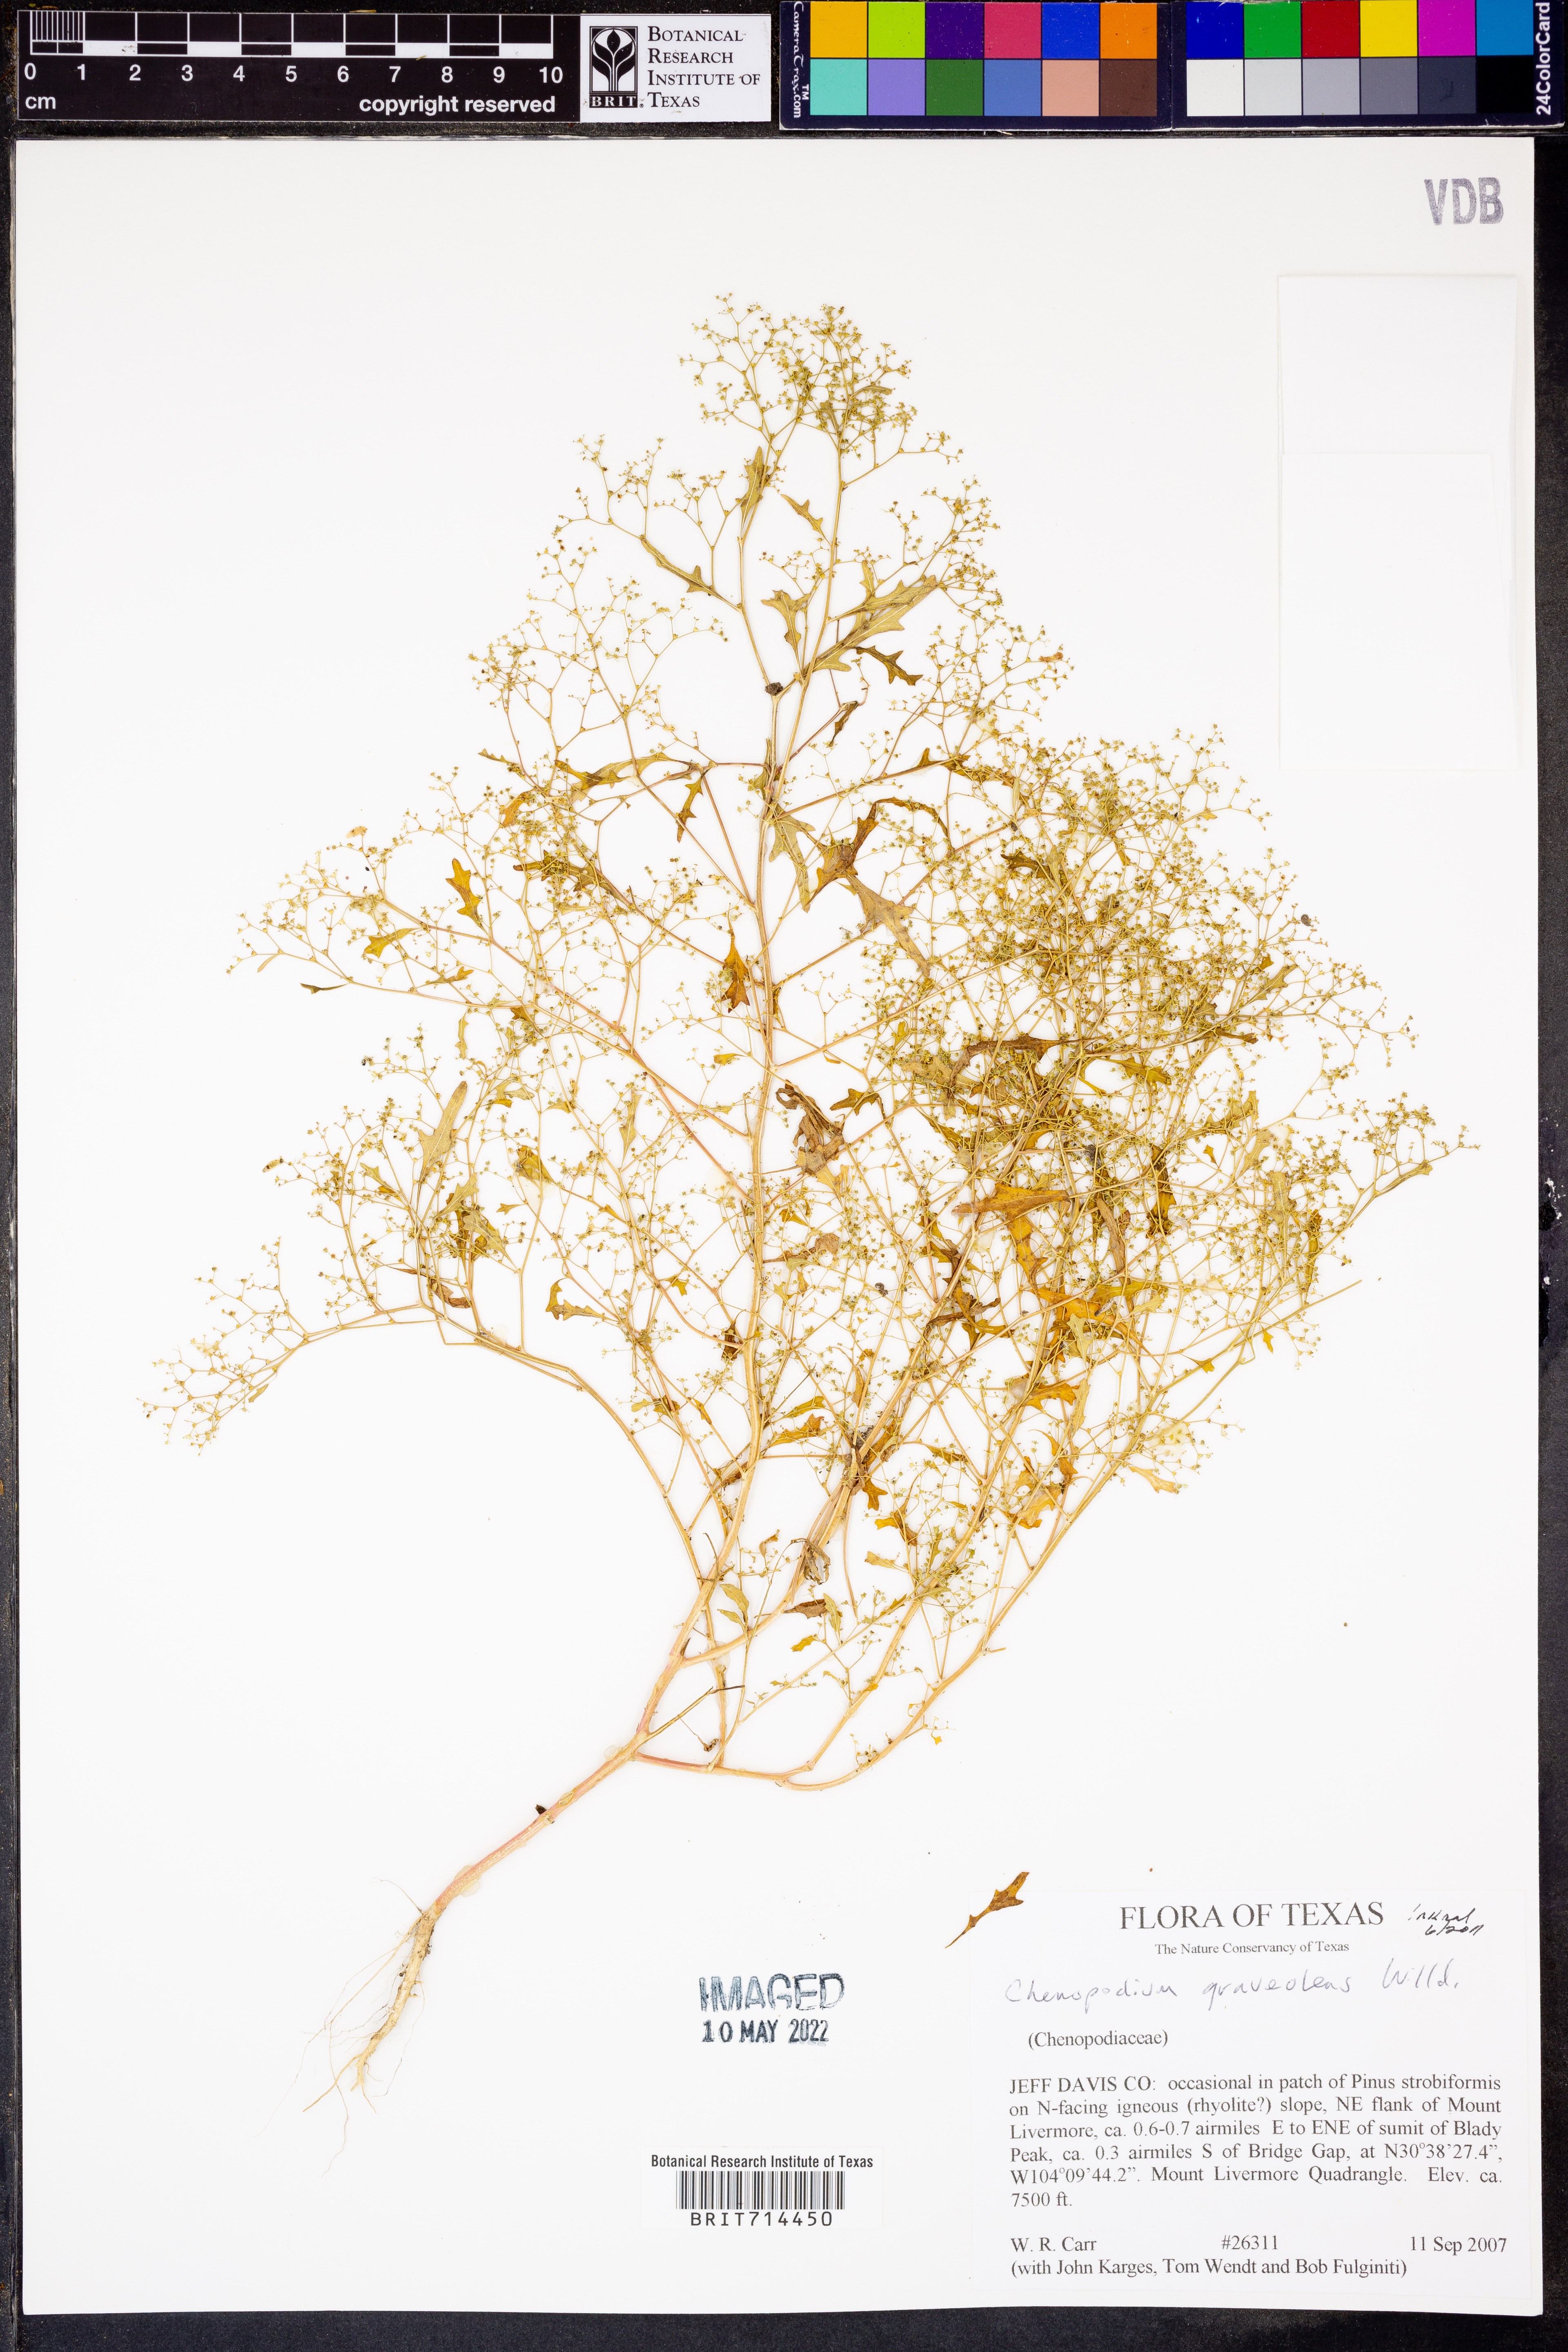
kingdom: Plantae
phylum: Tracheophyta
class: Magnoliopsida
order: Caryophyllales
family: Amaranthaceae
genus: Dysphania
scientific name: Dysphania graveolens
